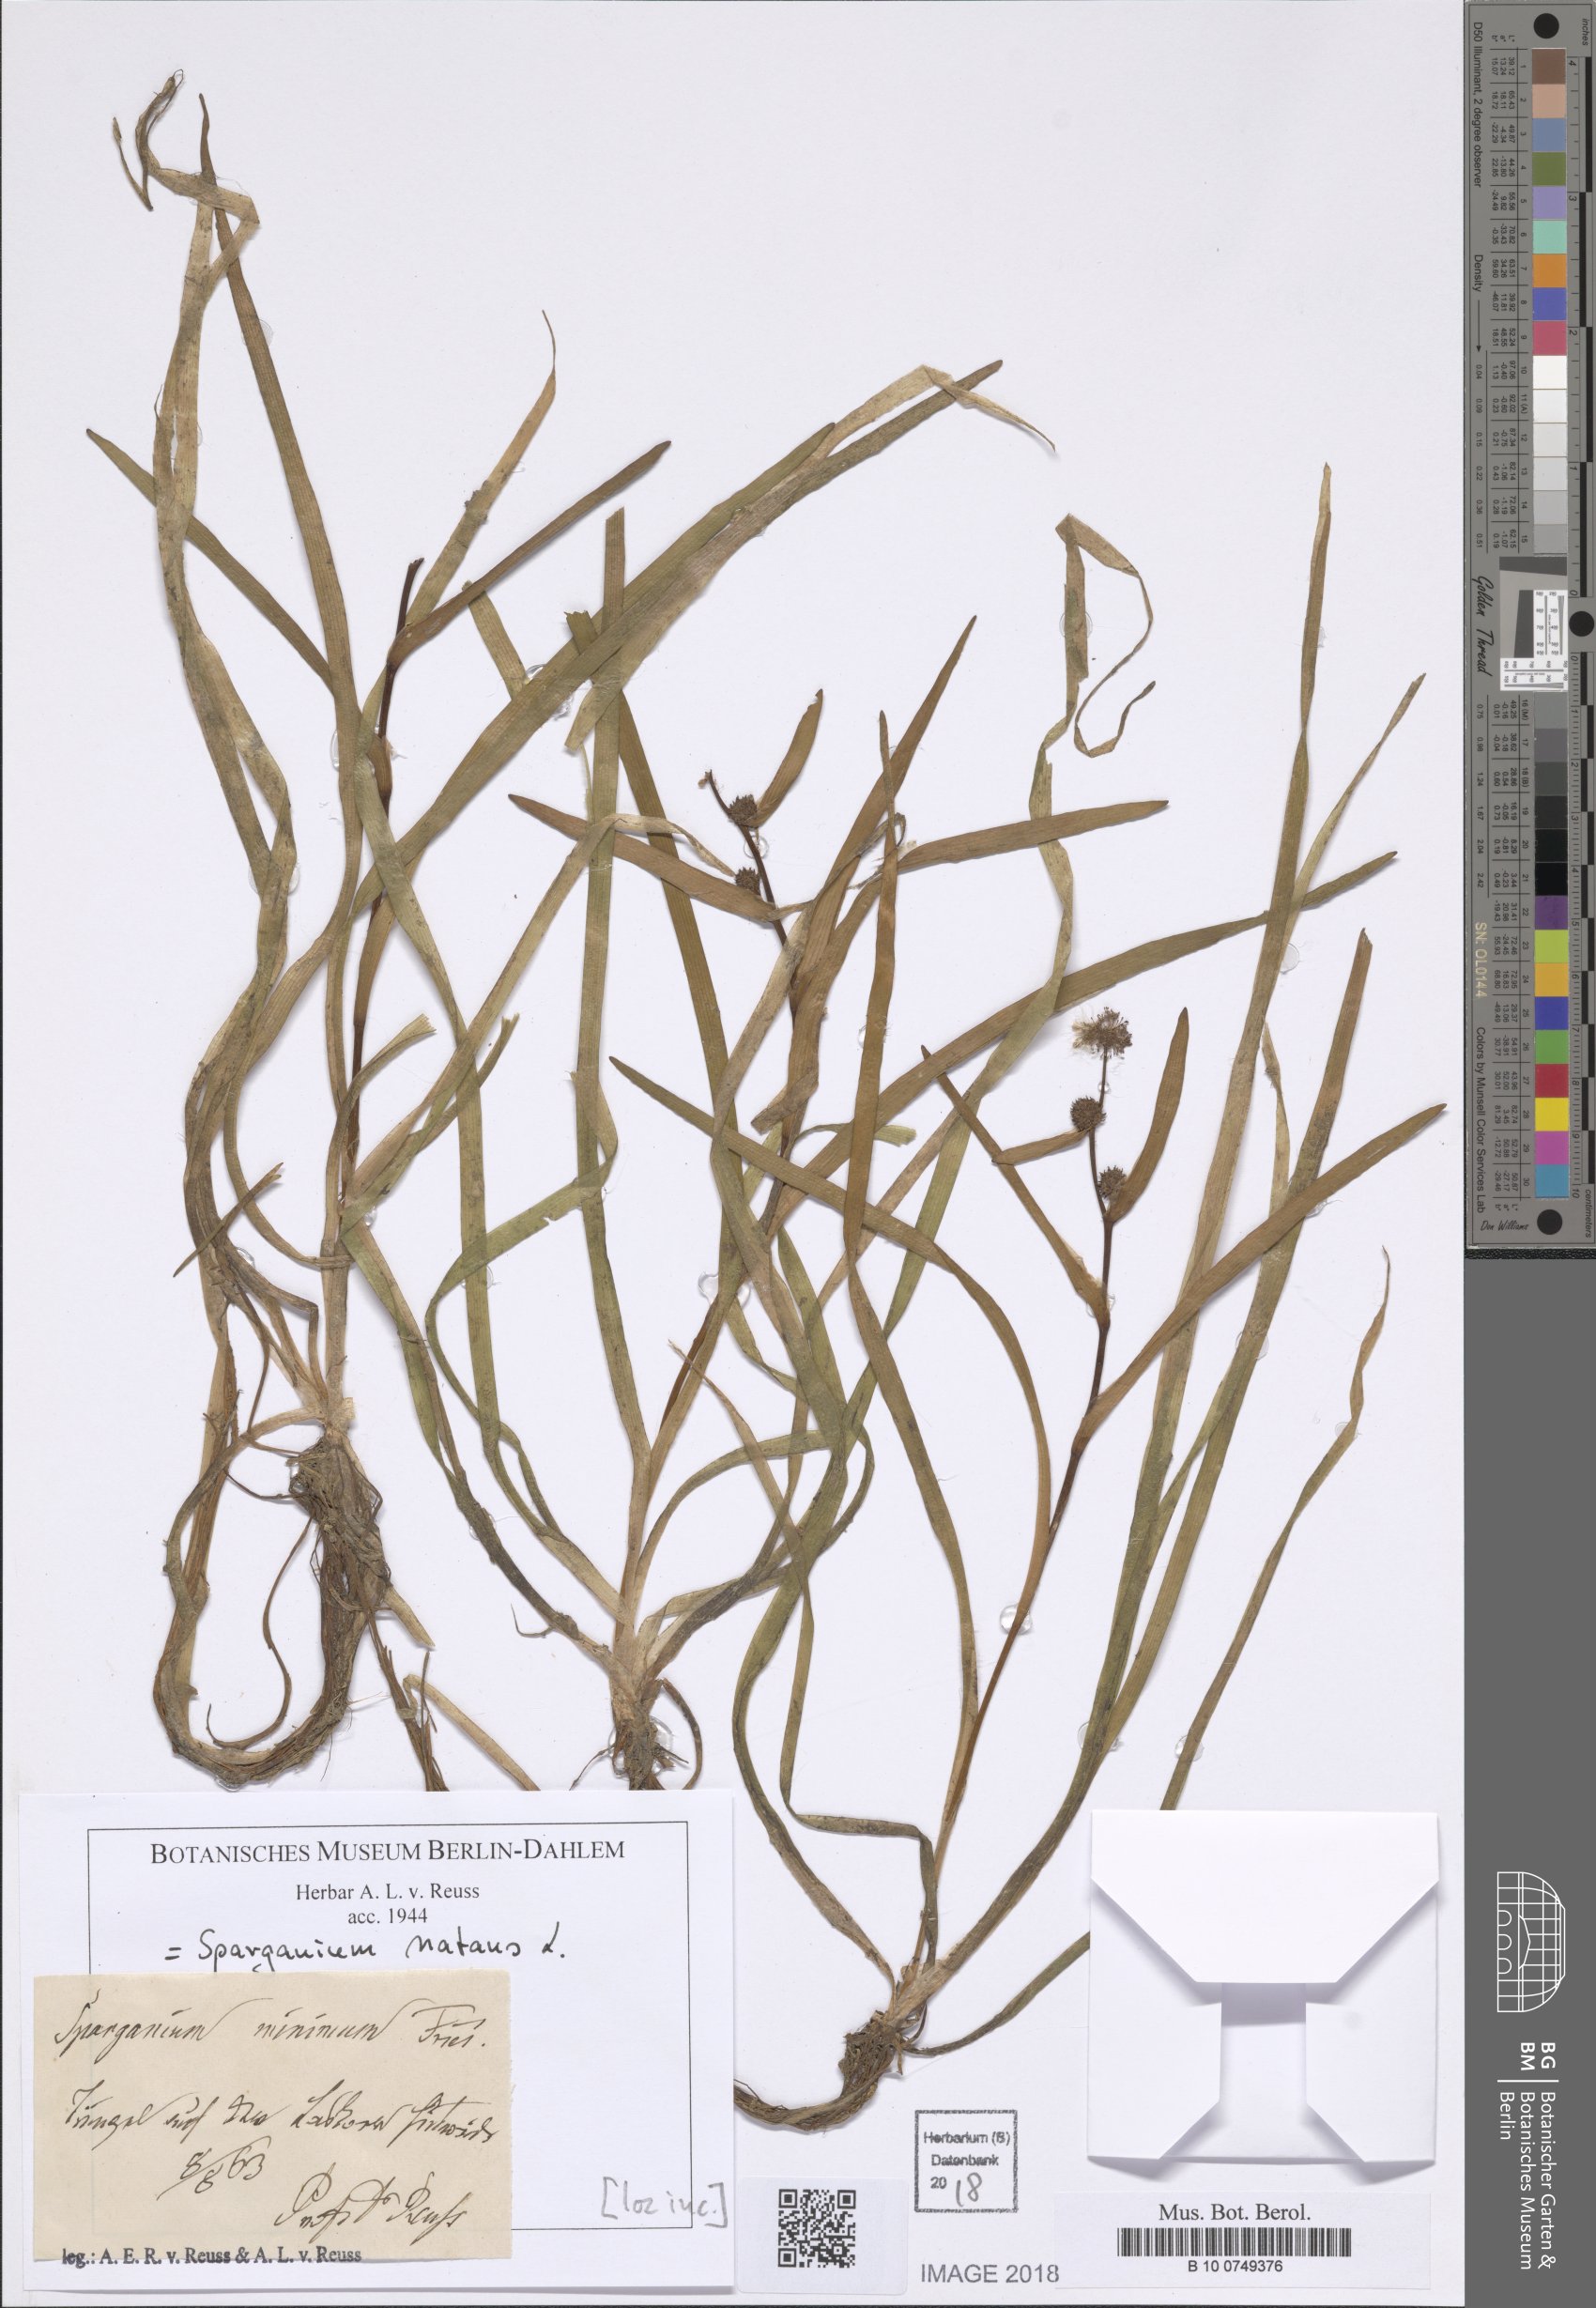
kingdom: Plantae
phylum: Tracheophyta
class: Liliopsida
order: Poales
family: Typhaceae
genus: Sparganium
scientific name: Sparganium natans
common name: Least bur-reed
